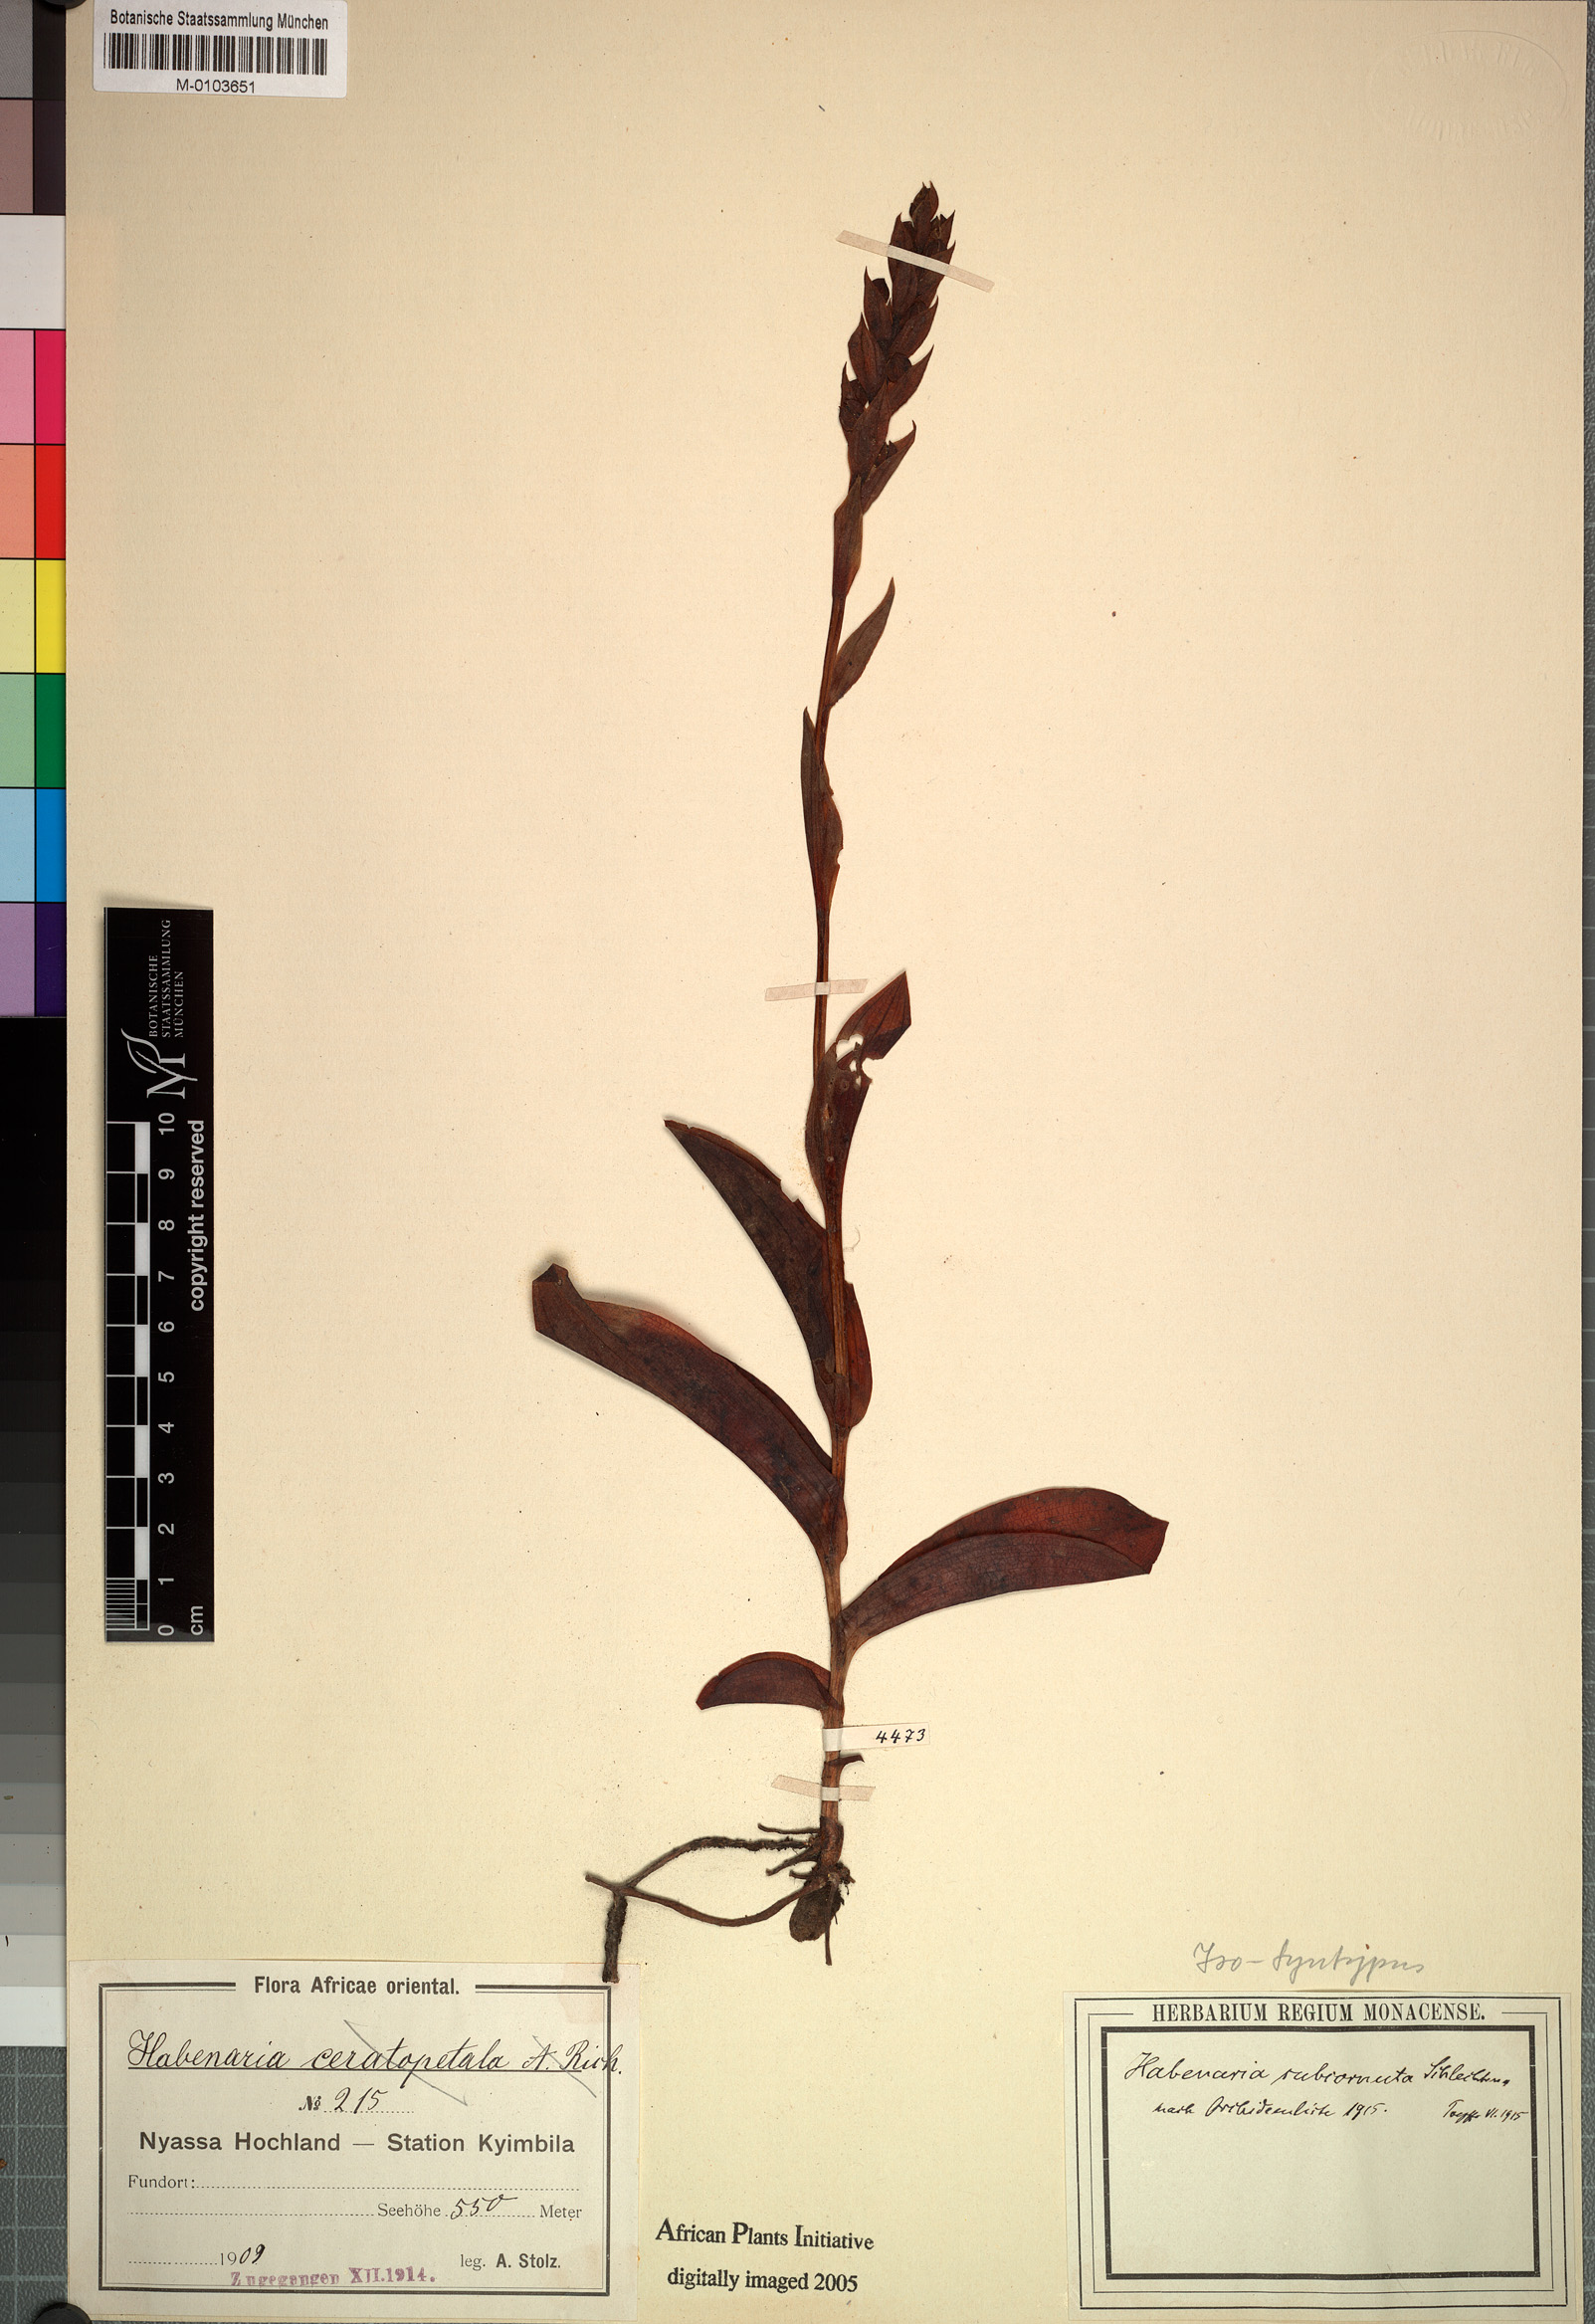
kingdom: Plantae
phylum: Tracheophyta
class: Liliopsida
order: Asparagales
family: Orchidaceae
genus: Habenaria
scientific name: Habenaria cornuta
